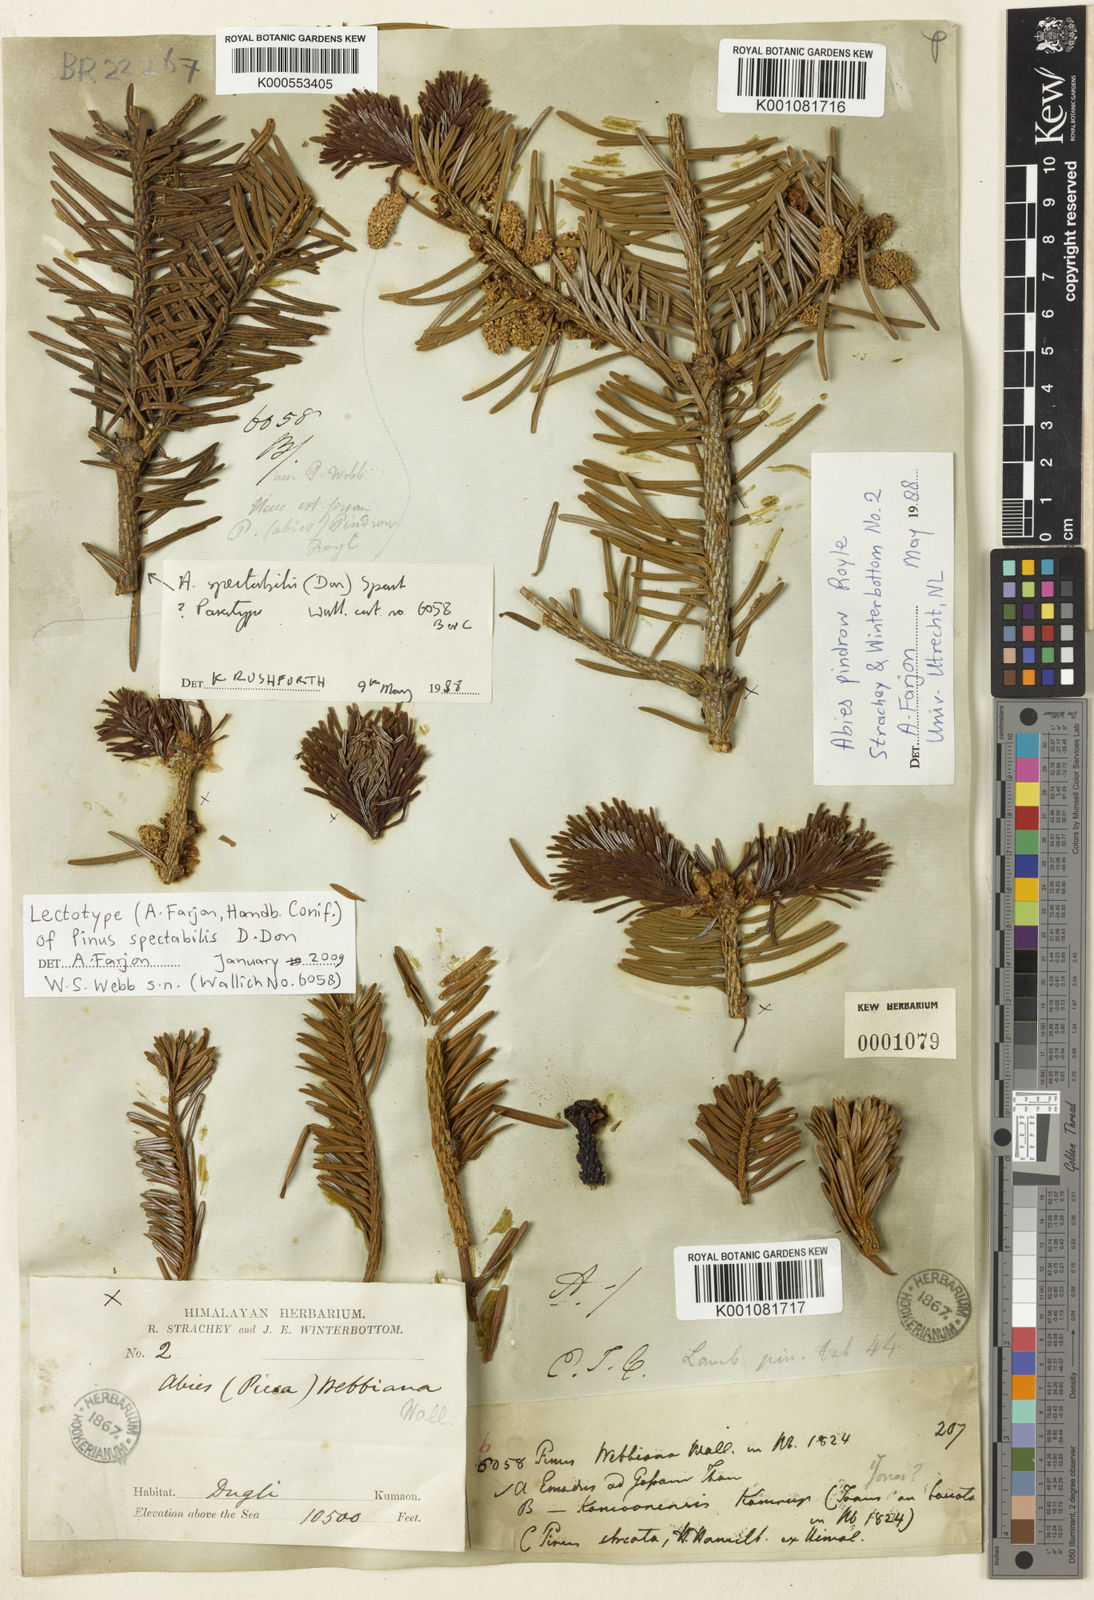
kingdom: Plantae
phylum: Tracheophyta
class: Pinopsida
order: Pinales
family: Pinaceae
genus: Abies
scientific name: Abies spectabilis
